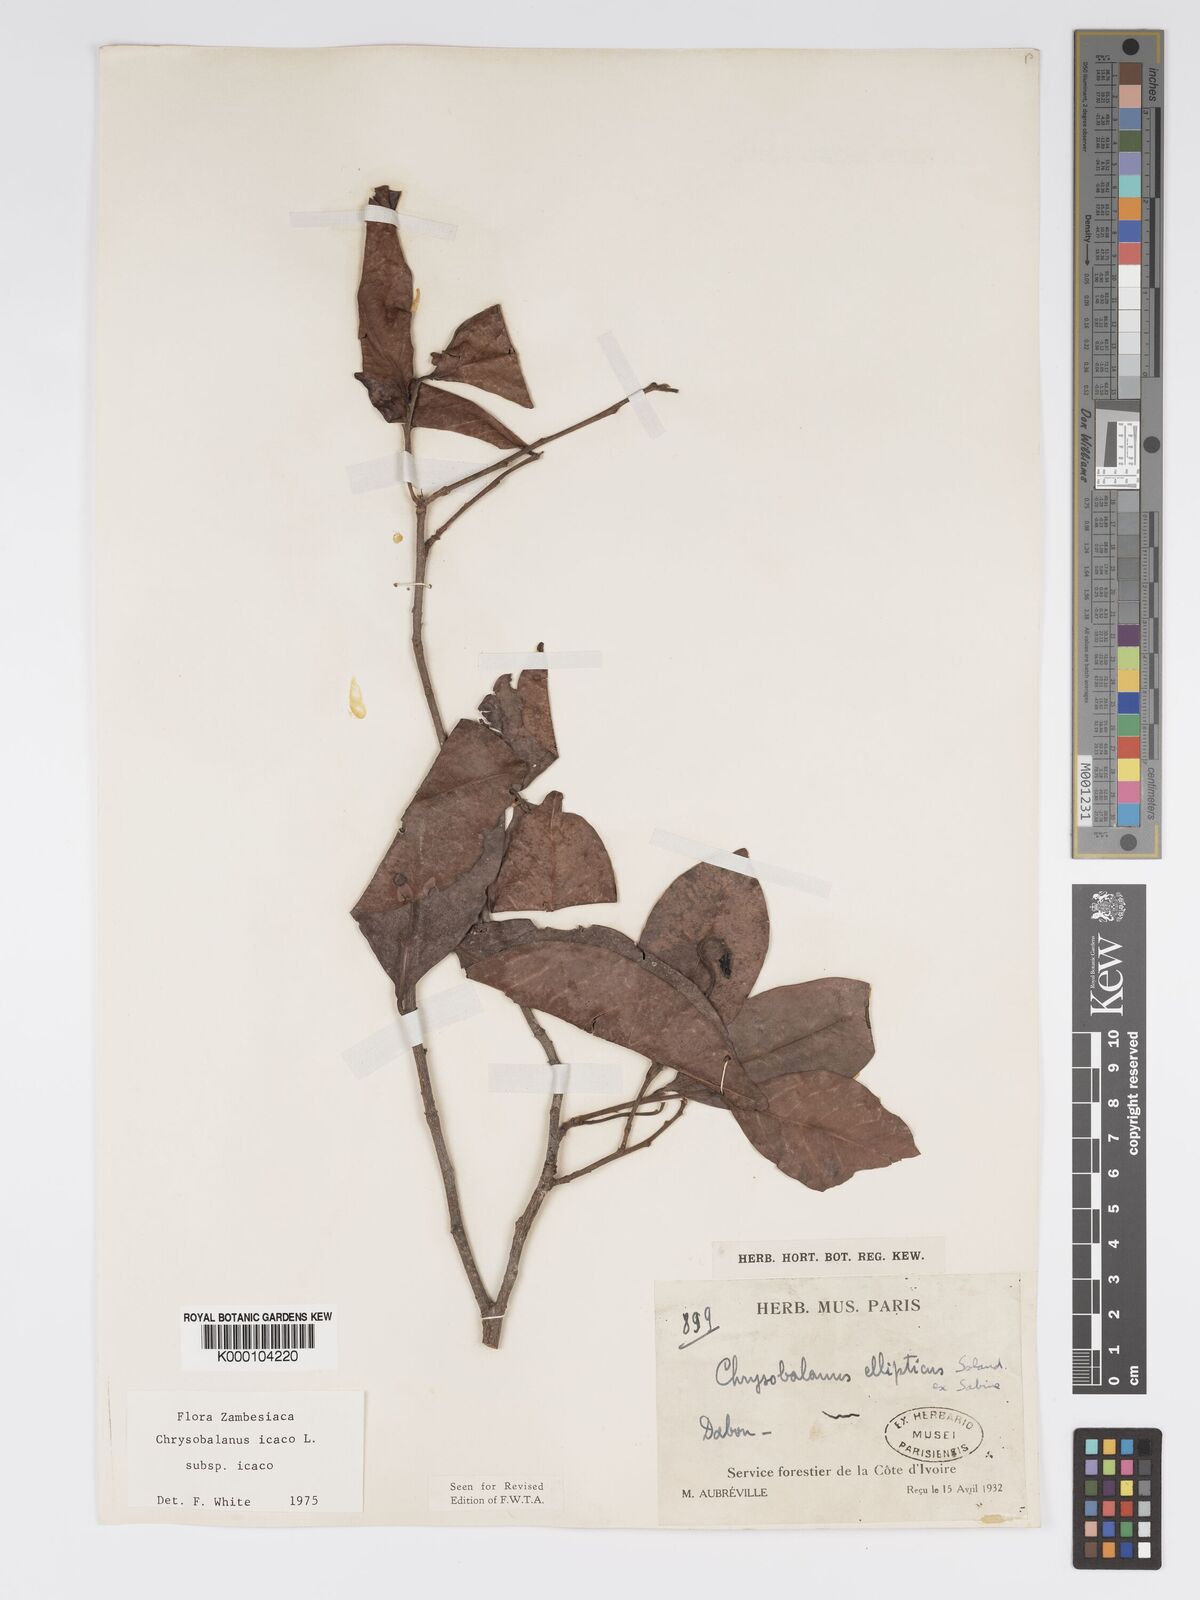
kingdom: Plantae
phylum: Tracheophyta
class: Magnoliopsida
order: Malpighiales
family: Chrysobalanaceae
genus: Chrysobalanus
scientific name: Chrysobalanus icaco
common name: Coco plum
